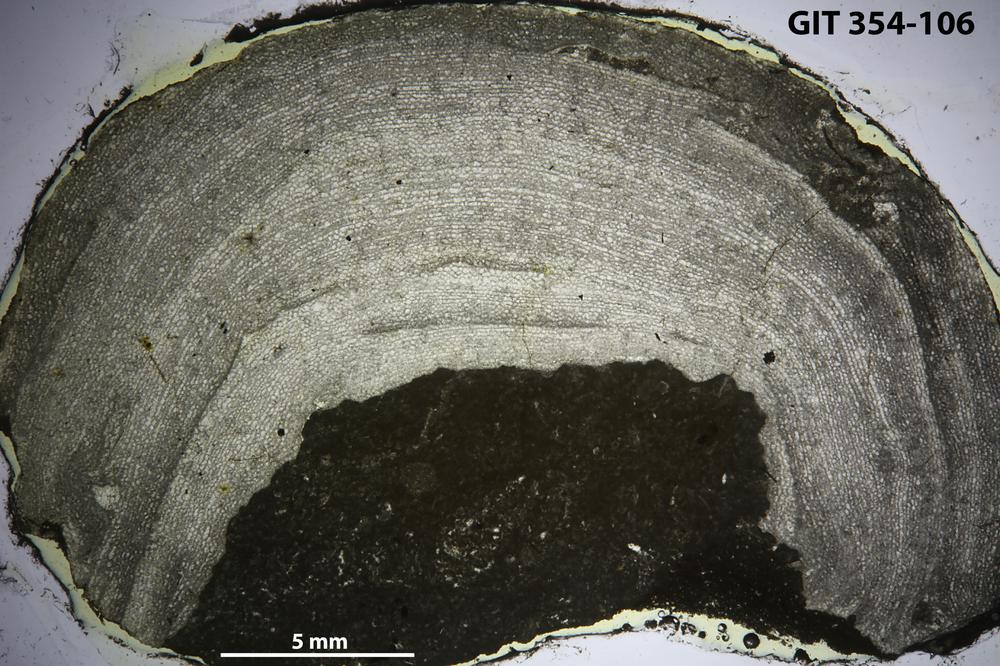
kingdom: Animalia
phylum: Porifera
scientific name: Porifera
